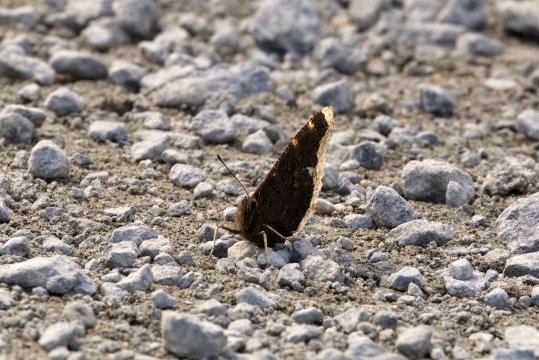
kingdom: Animalia
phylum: Arthropoda
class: Insecta
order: Lepidoptera
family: Nymphalidae
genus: Nymphalis
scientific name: Nymphalis antiopa
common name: Mourning Cloak
